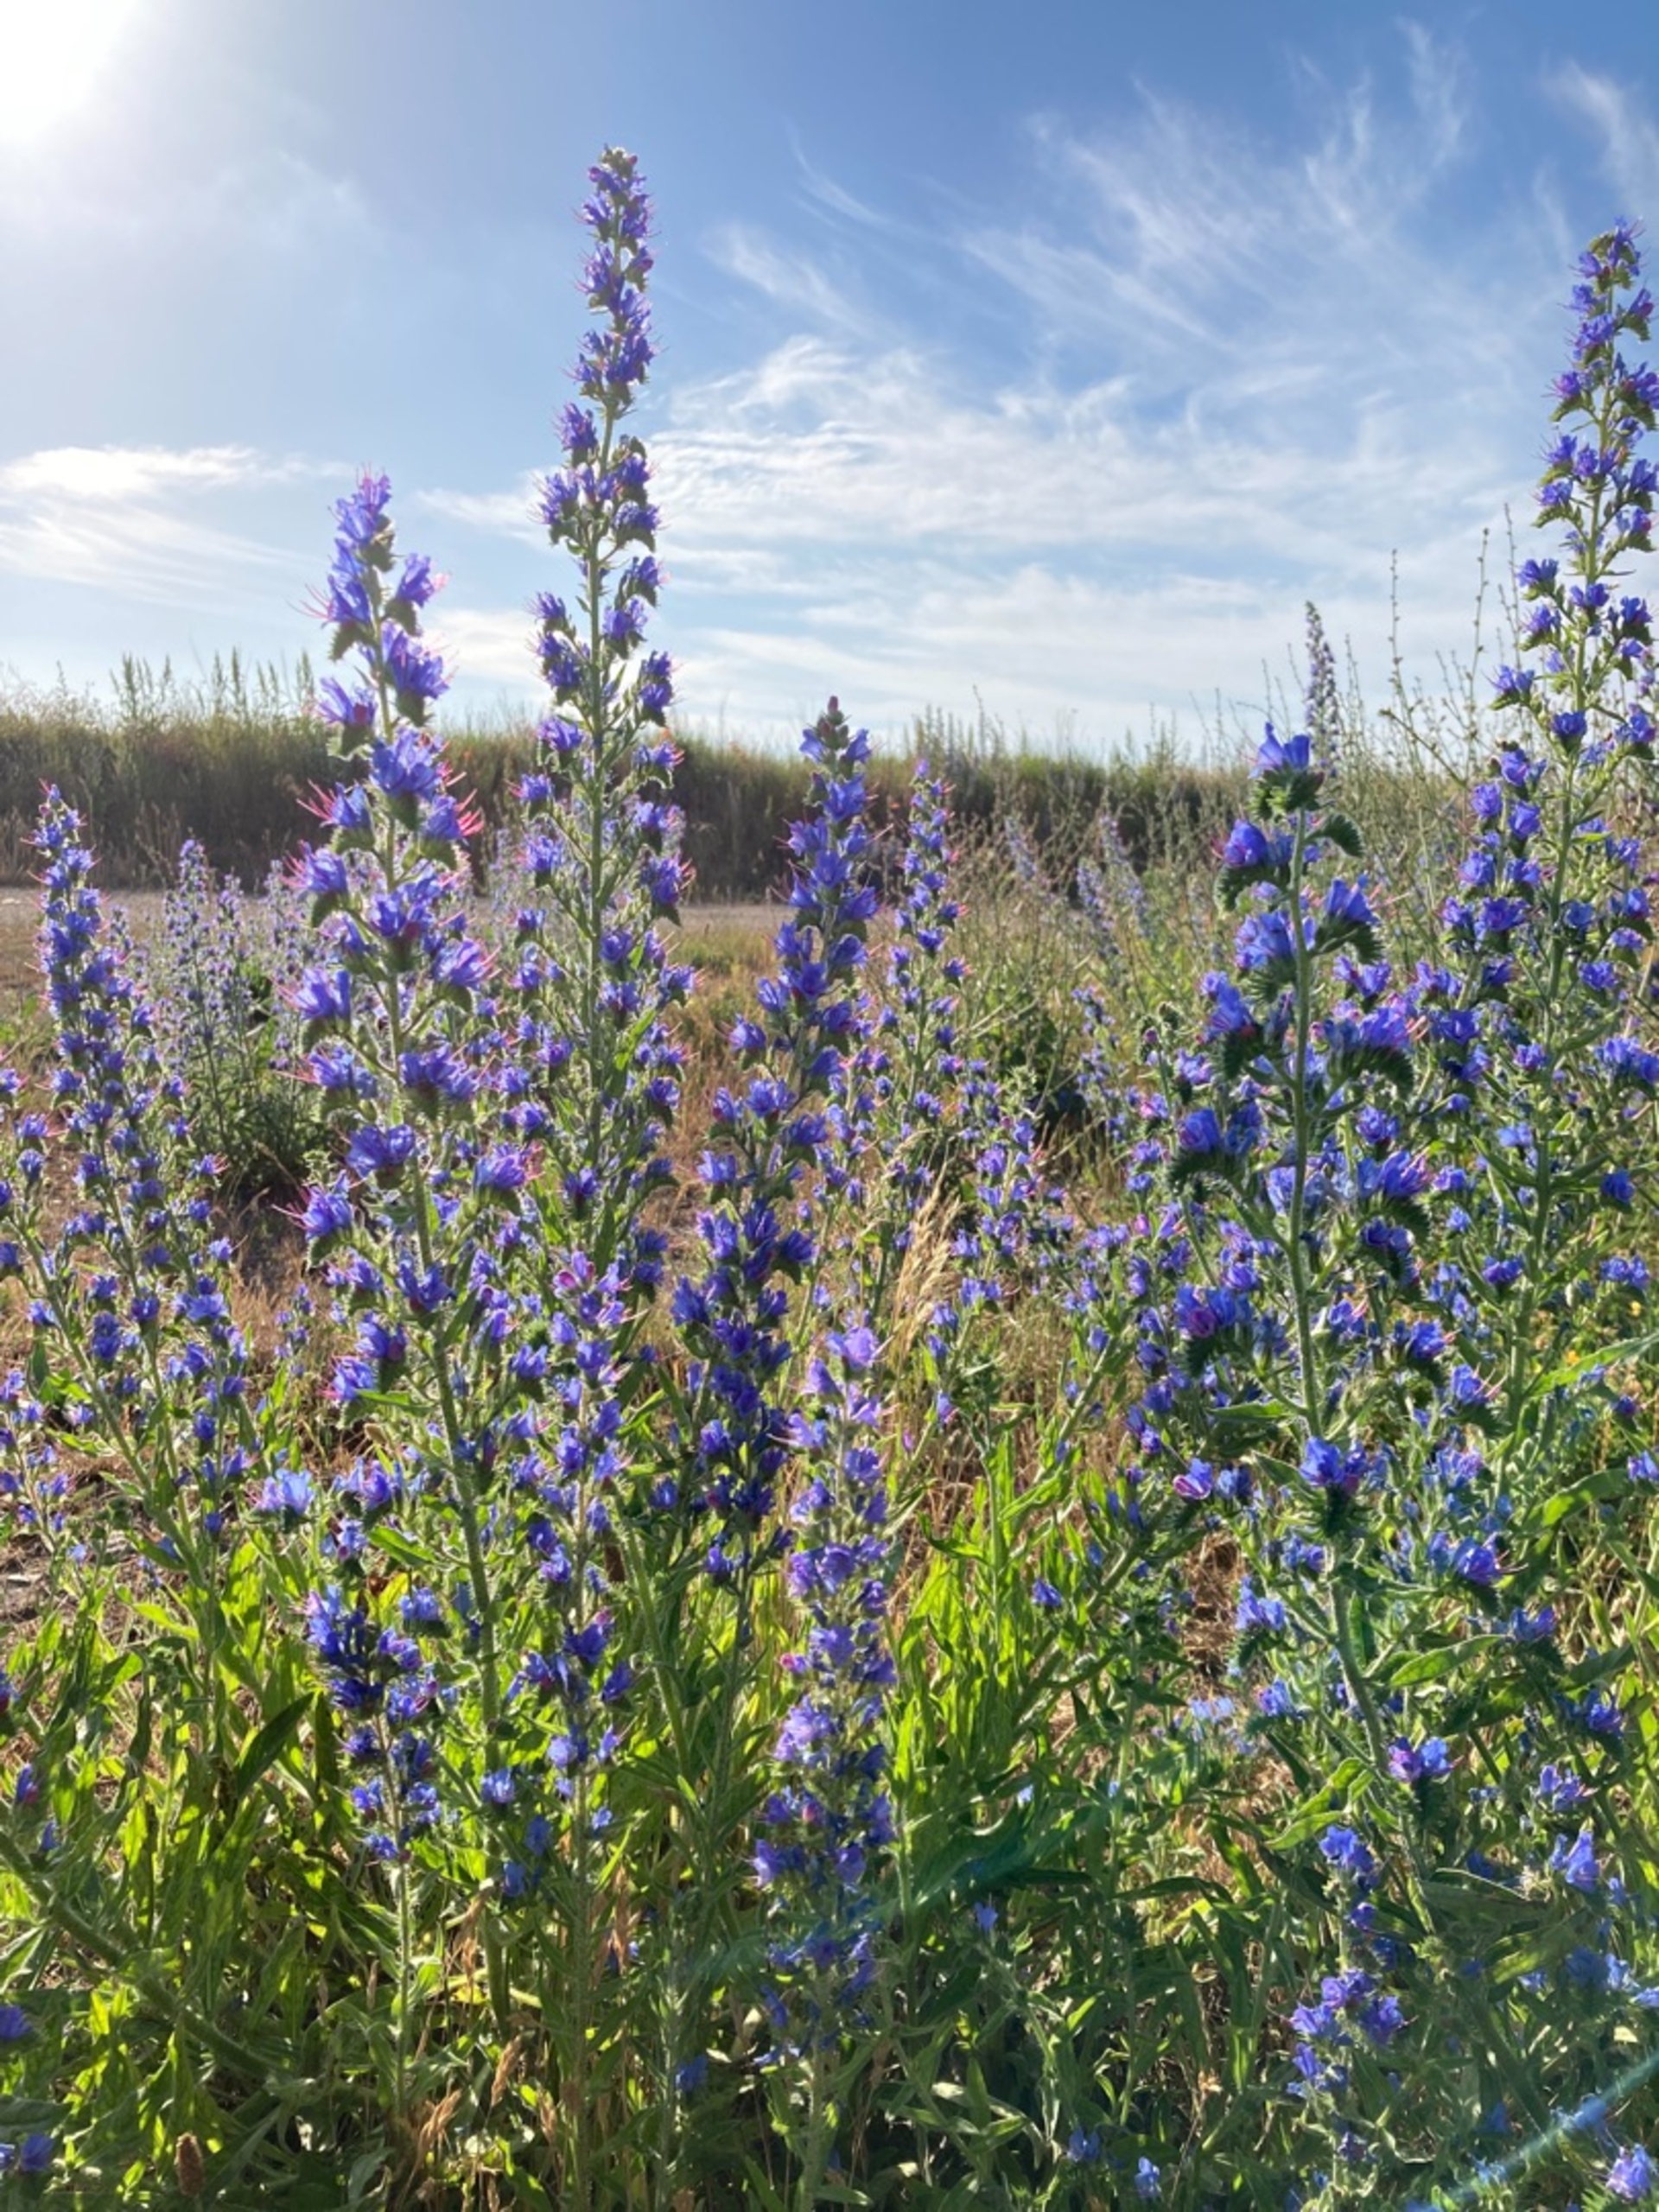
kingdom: Plantae
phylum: Tracheophyta
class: Magnoliopsida
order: Boraginales
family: Boraginaceae
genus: Echium
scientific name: Echium vulgare
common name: Slangehoved
